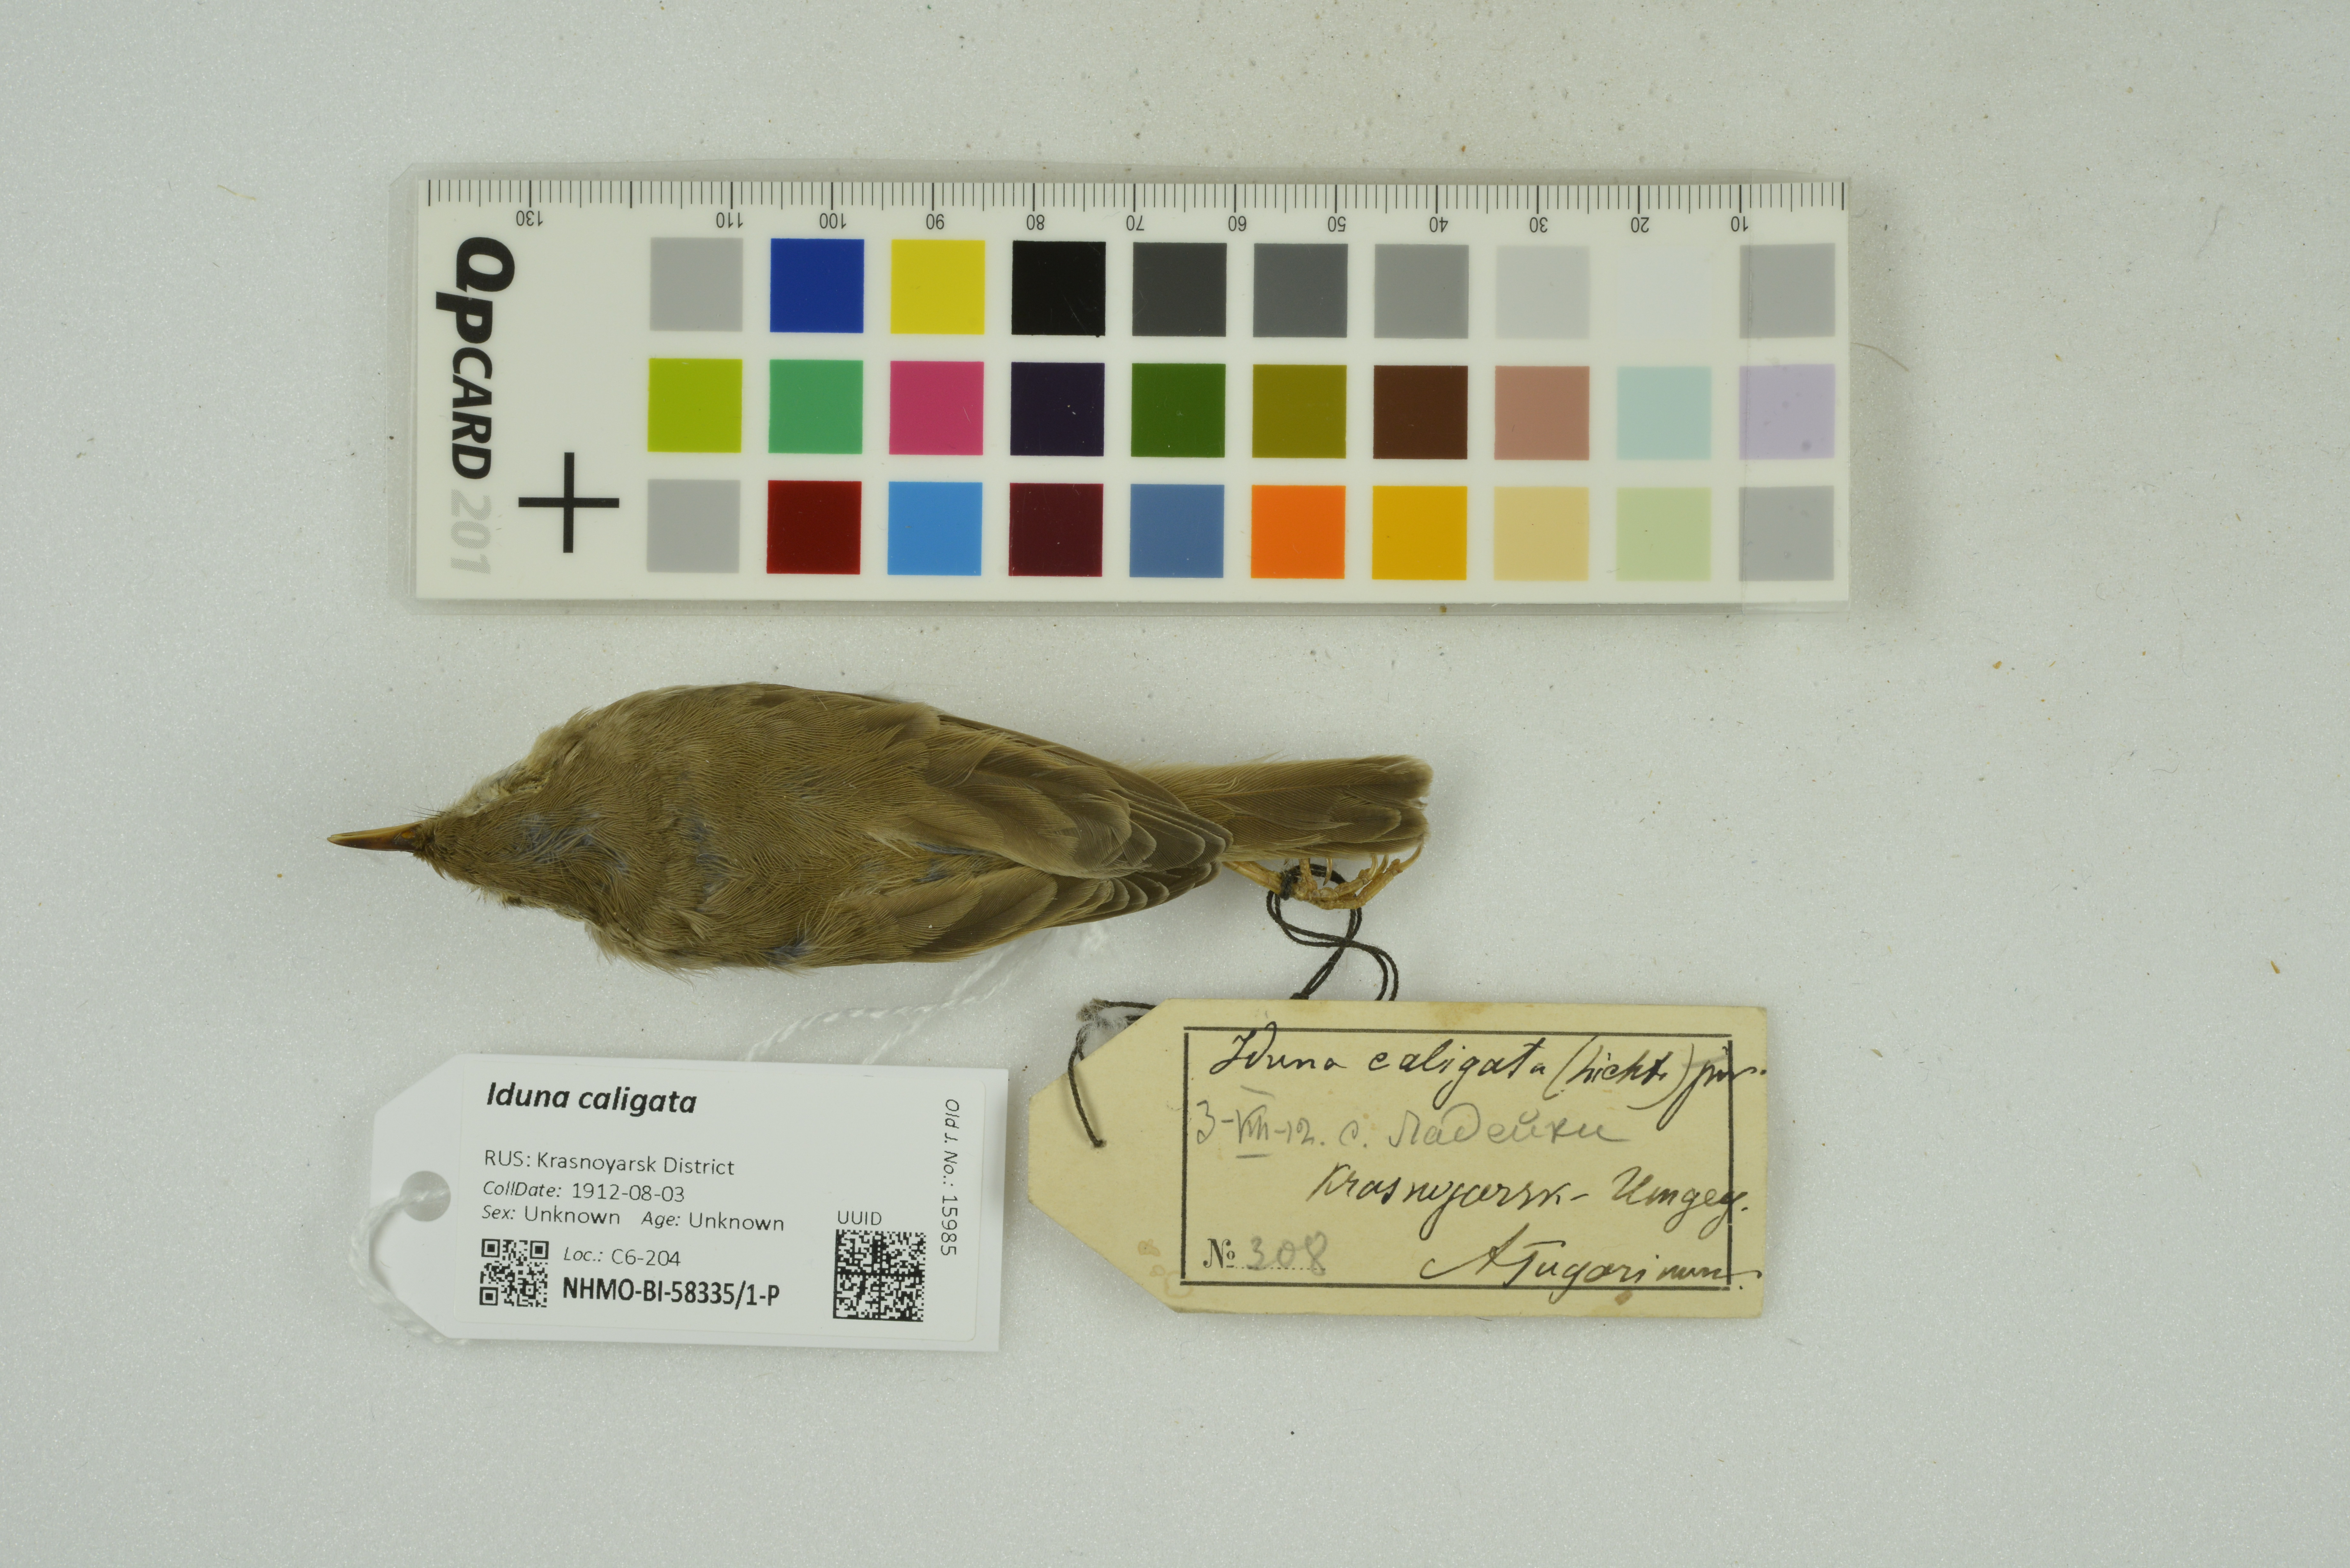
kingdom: Animalia
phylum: Chordata
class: Aves
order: Passeriformes
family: Acrocephalidae
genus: Iduna
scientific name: Iduna caligata
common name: Booted warbler
